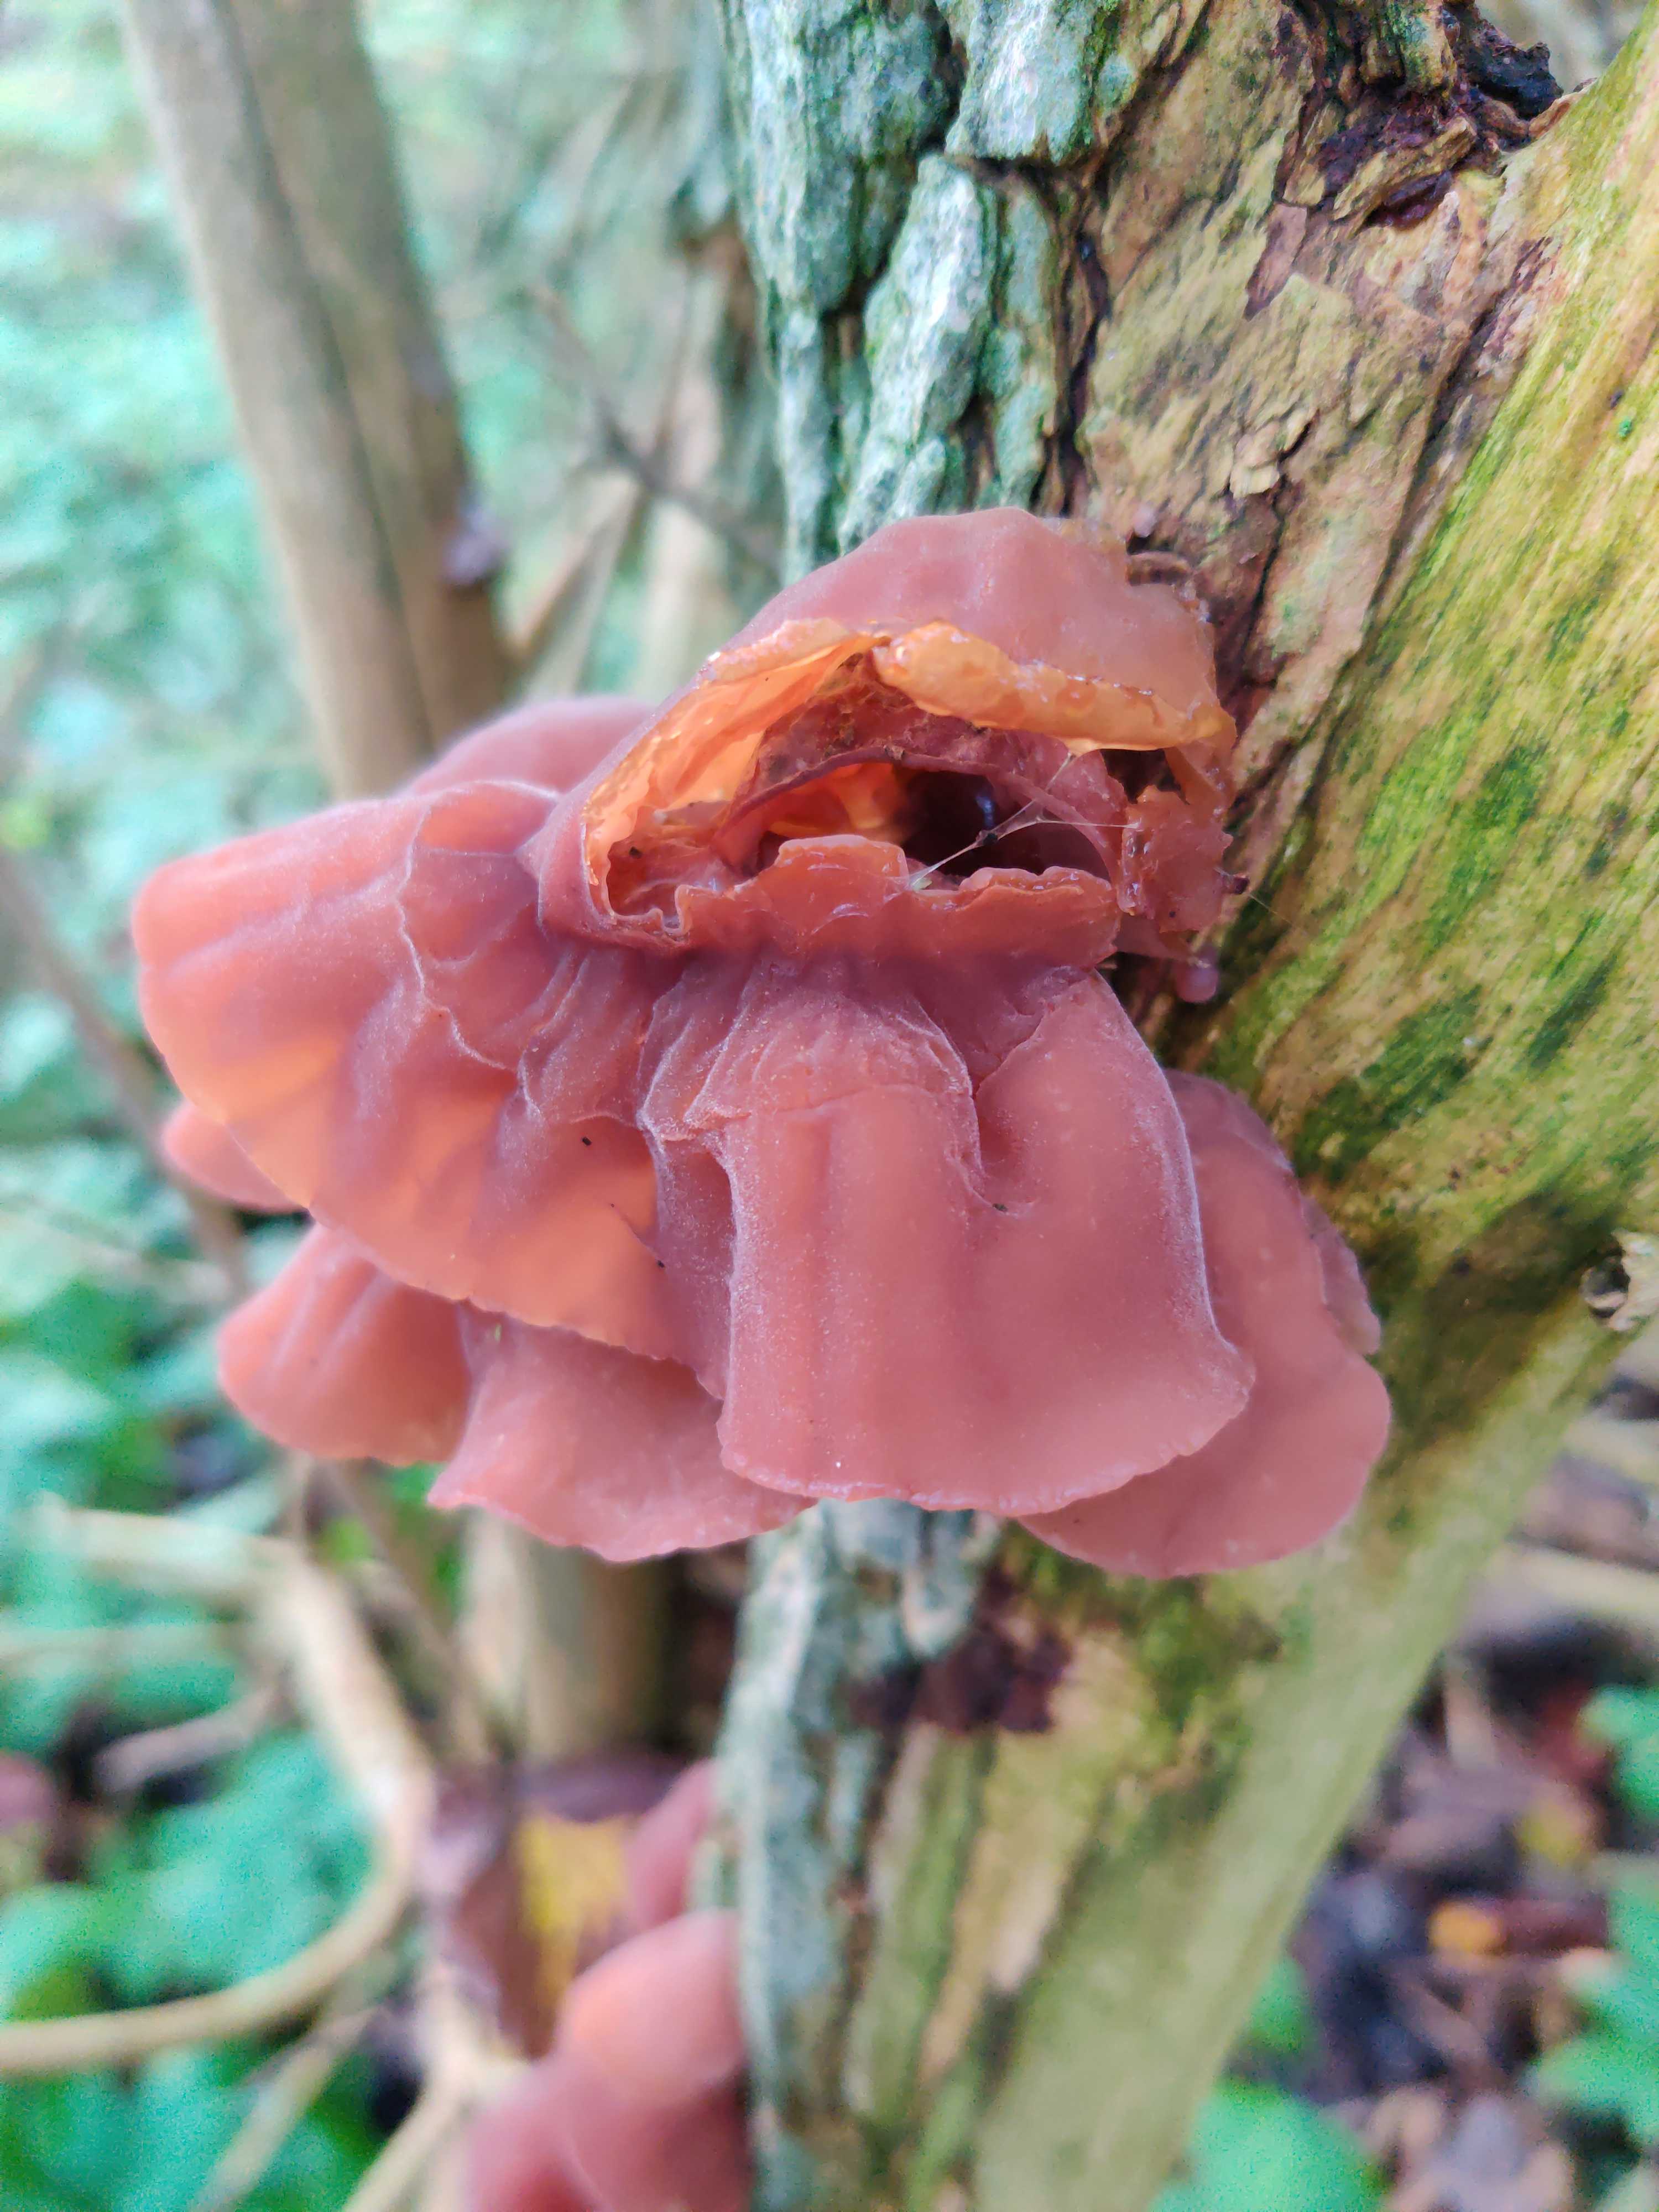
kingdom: Fungi
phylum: Basidiomycota
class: Agaricomycetes
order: Auriculariales
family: Auriculariaceae
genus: Auricularia
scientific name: Auricularia auricula-judae
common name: almindelig judasøre
